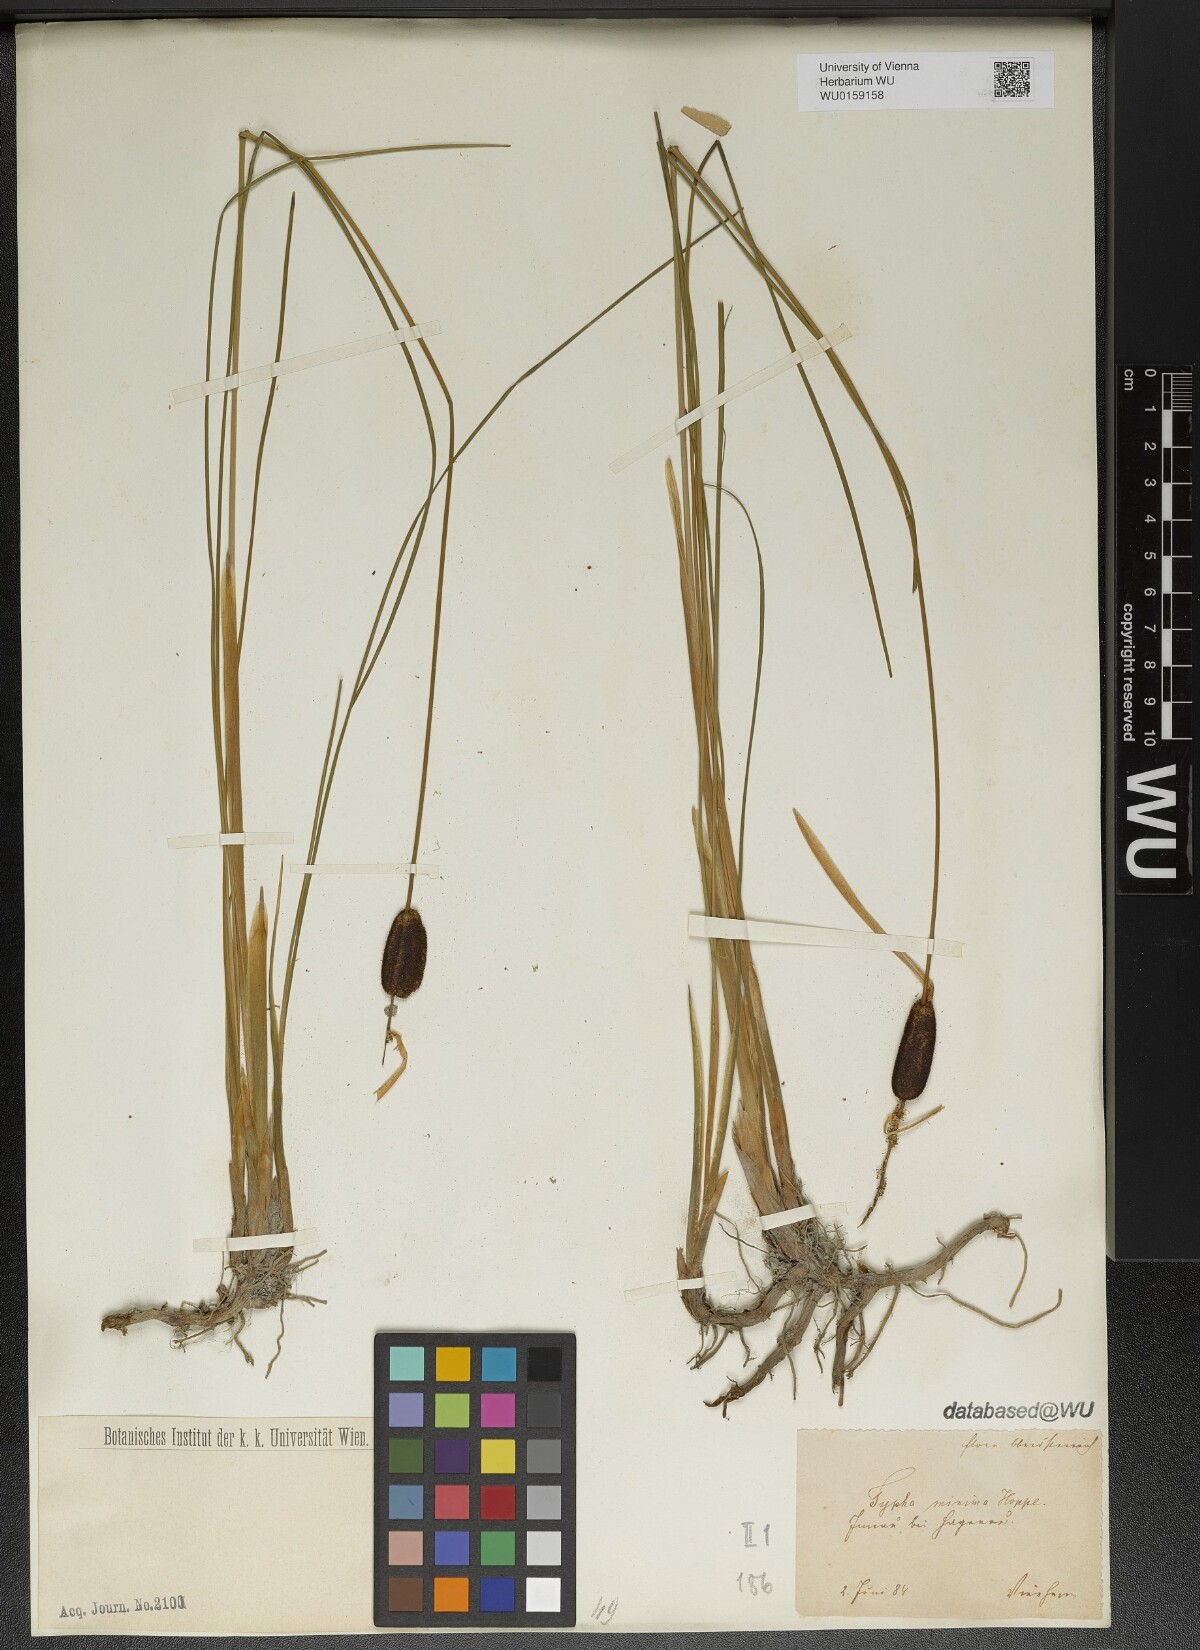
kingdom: Plantae
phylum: Tracheophyta
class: Liliopsida
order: Poales
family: Typhaceae
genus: Typha
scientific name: Typha minima
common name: Dwarf bulrush
